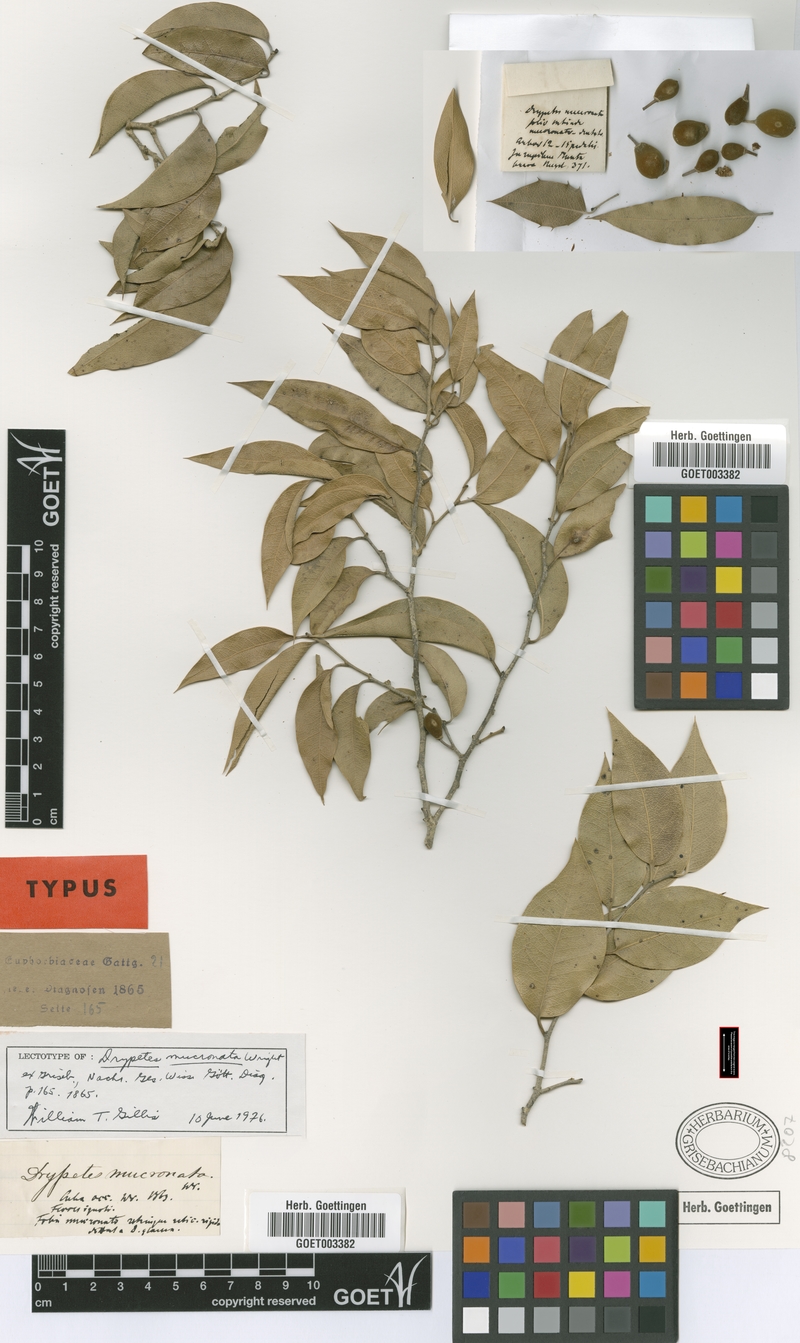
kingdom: Plantae
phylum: Tracheophyta
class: Magnoliopsida
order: Malpighiales
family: Putranjivaceae
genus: Drypetes
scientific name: Drypetes mucronata
